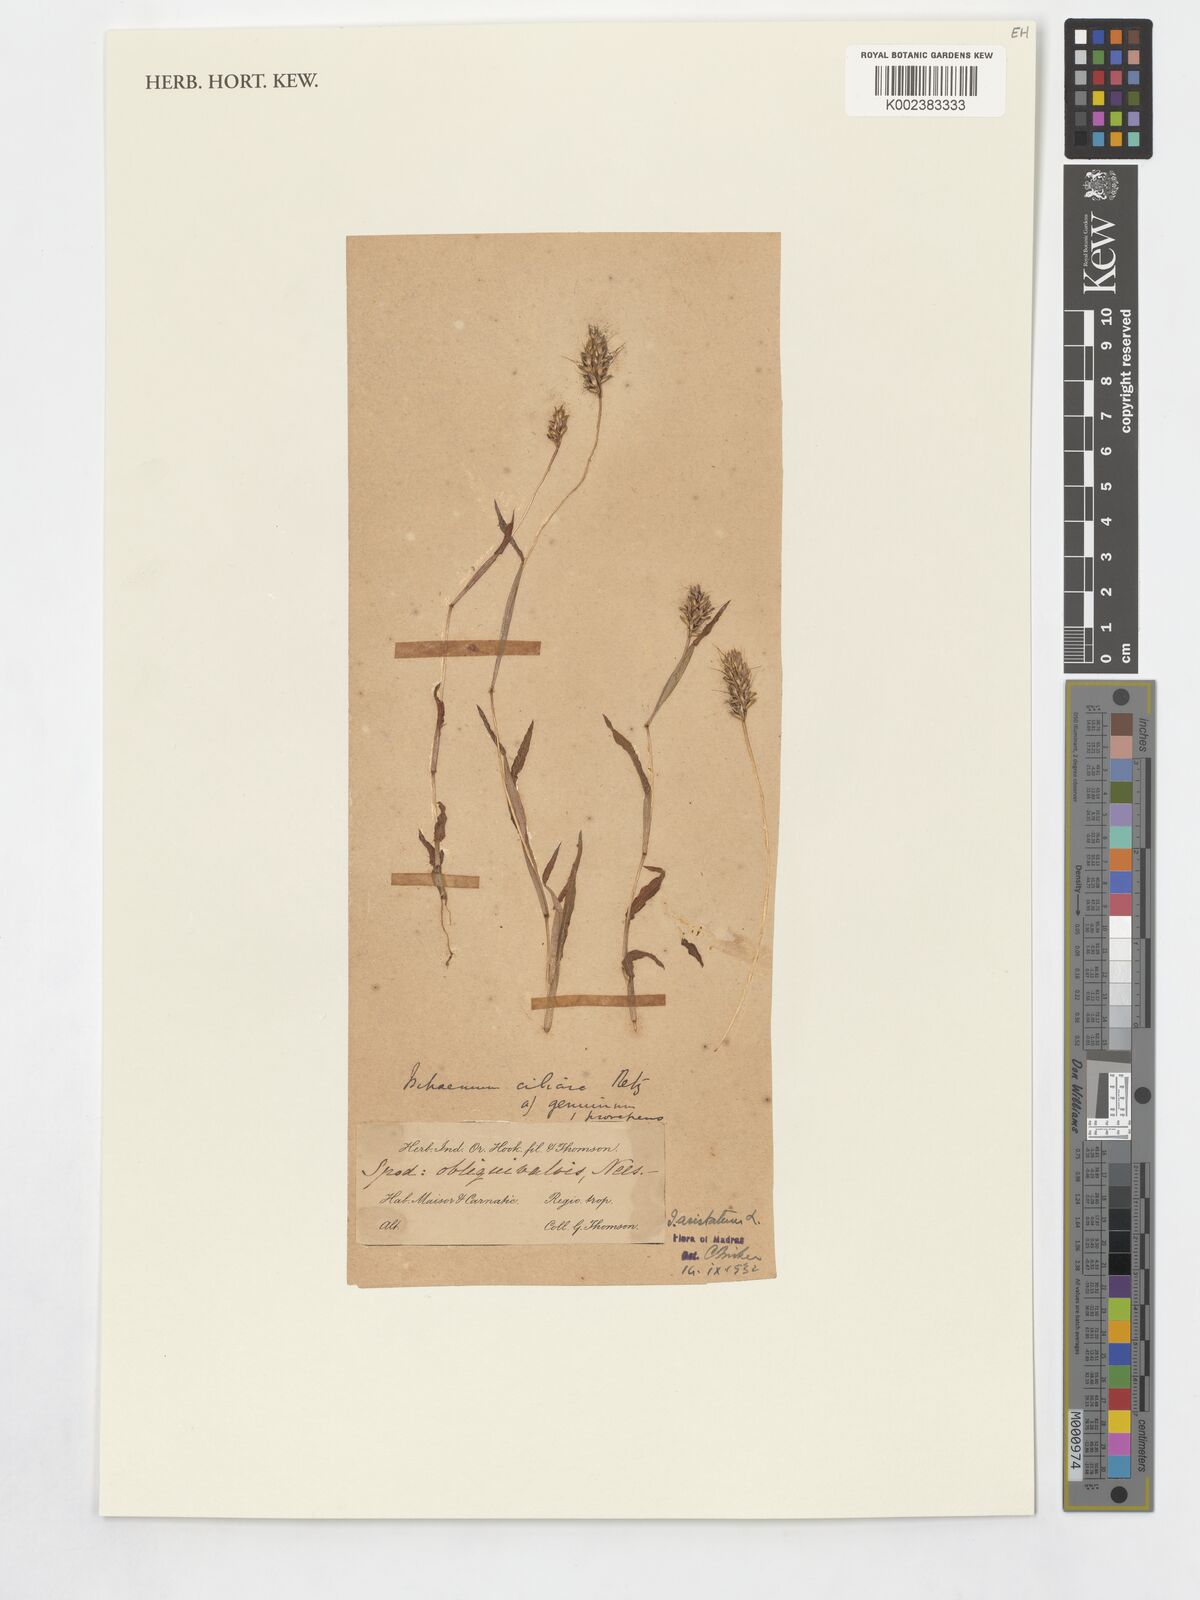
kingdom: Plantae
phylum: Tracheophyta
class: Liliopsida
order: Poales
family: Poaceae
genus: Ischaemum
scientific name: Ischaemum aristatum
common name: Toco grass
